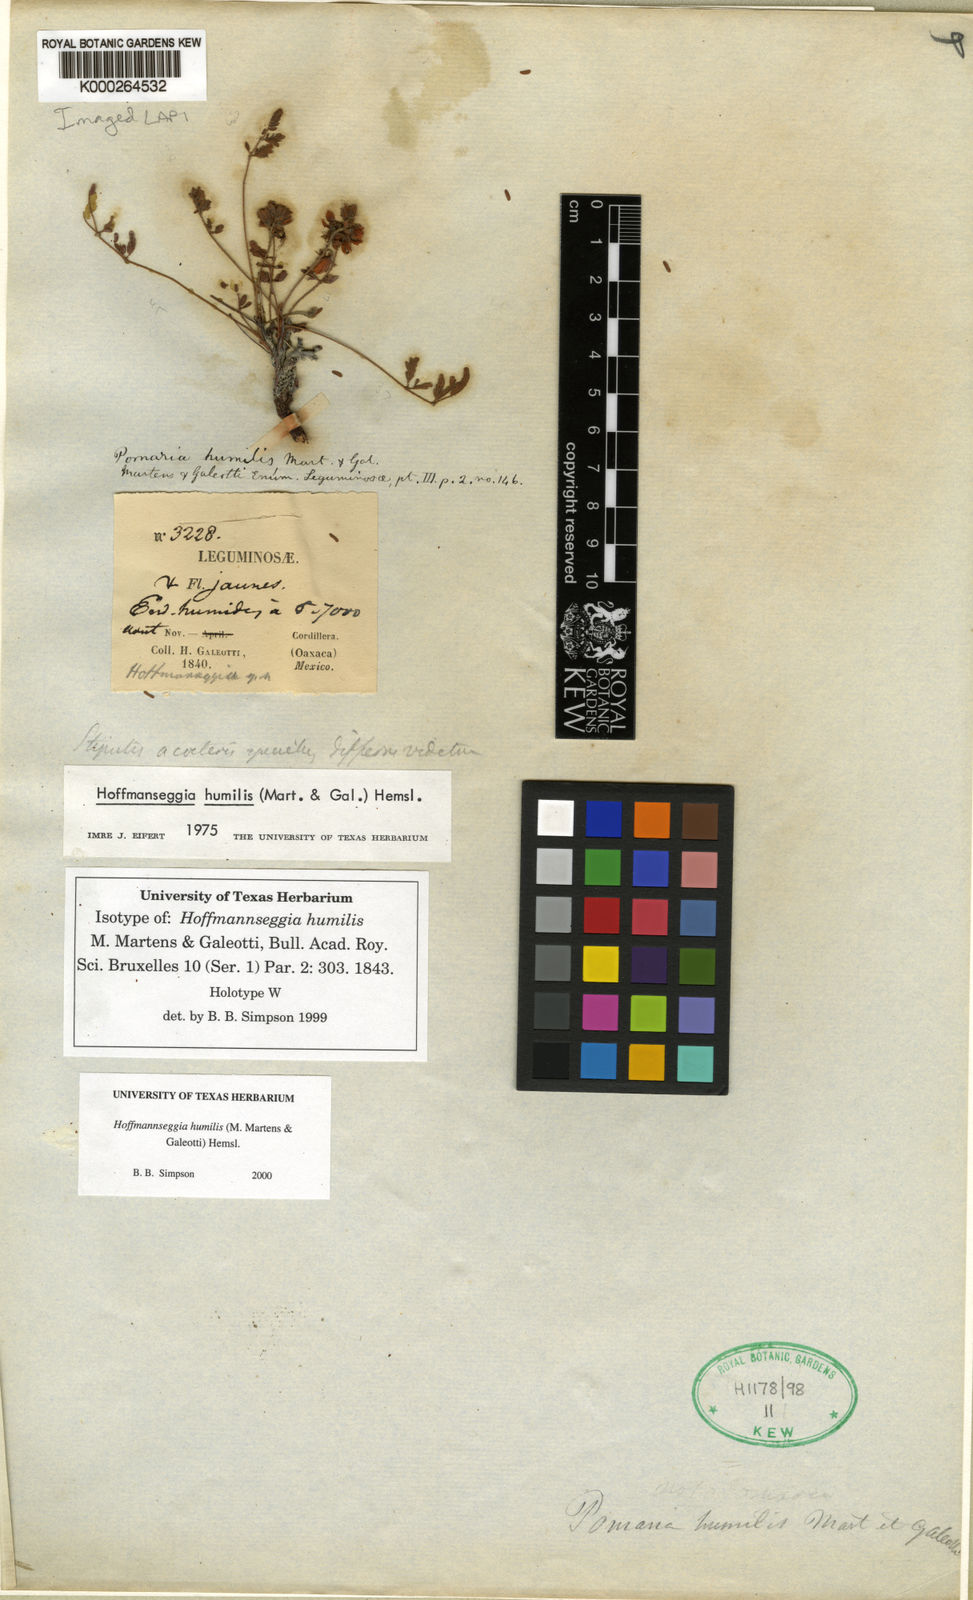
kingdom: Plantae
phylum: Tracheophyta
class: Magnoliopsida
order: Fabales
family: Fabaceae
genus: Hoffmannseggia
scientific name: Hoffmannseggia
